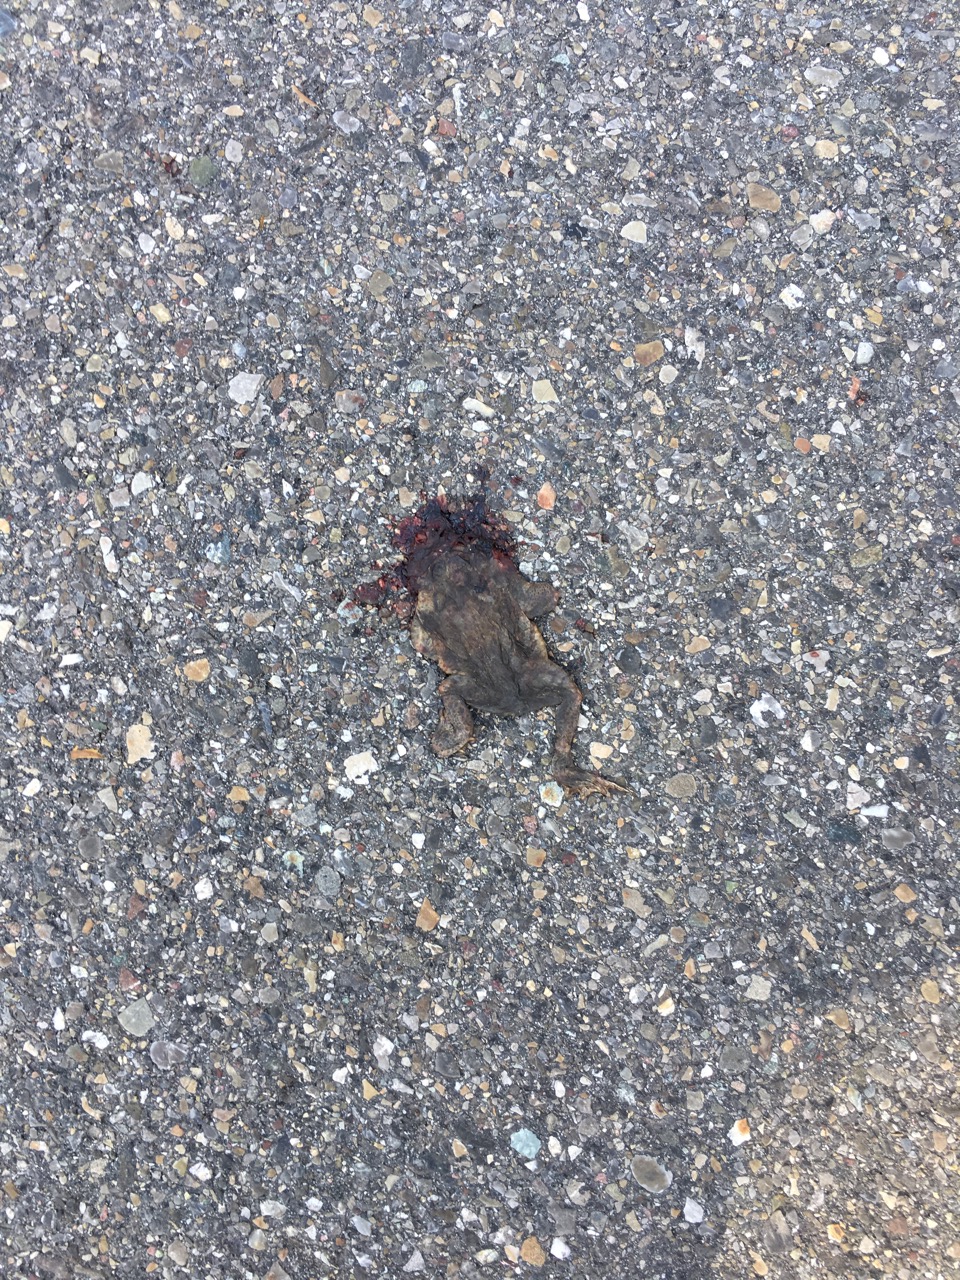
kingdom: Animalia
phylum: Chordata
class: Amphibia
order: Anura
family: Bufonidae
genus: Bufo
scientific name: Bufo bufo
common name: Common toad
